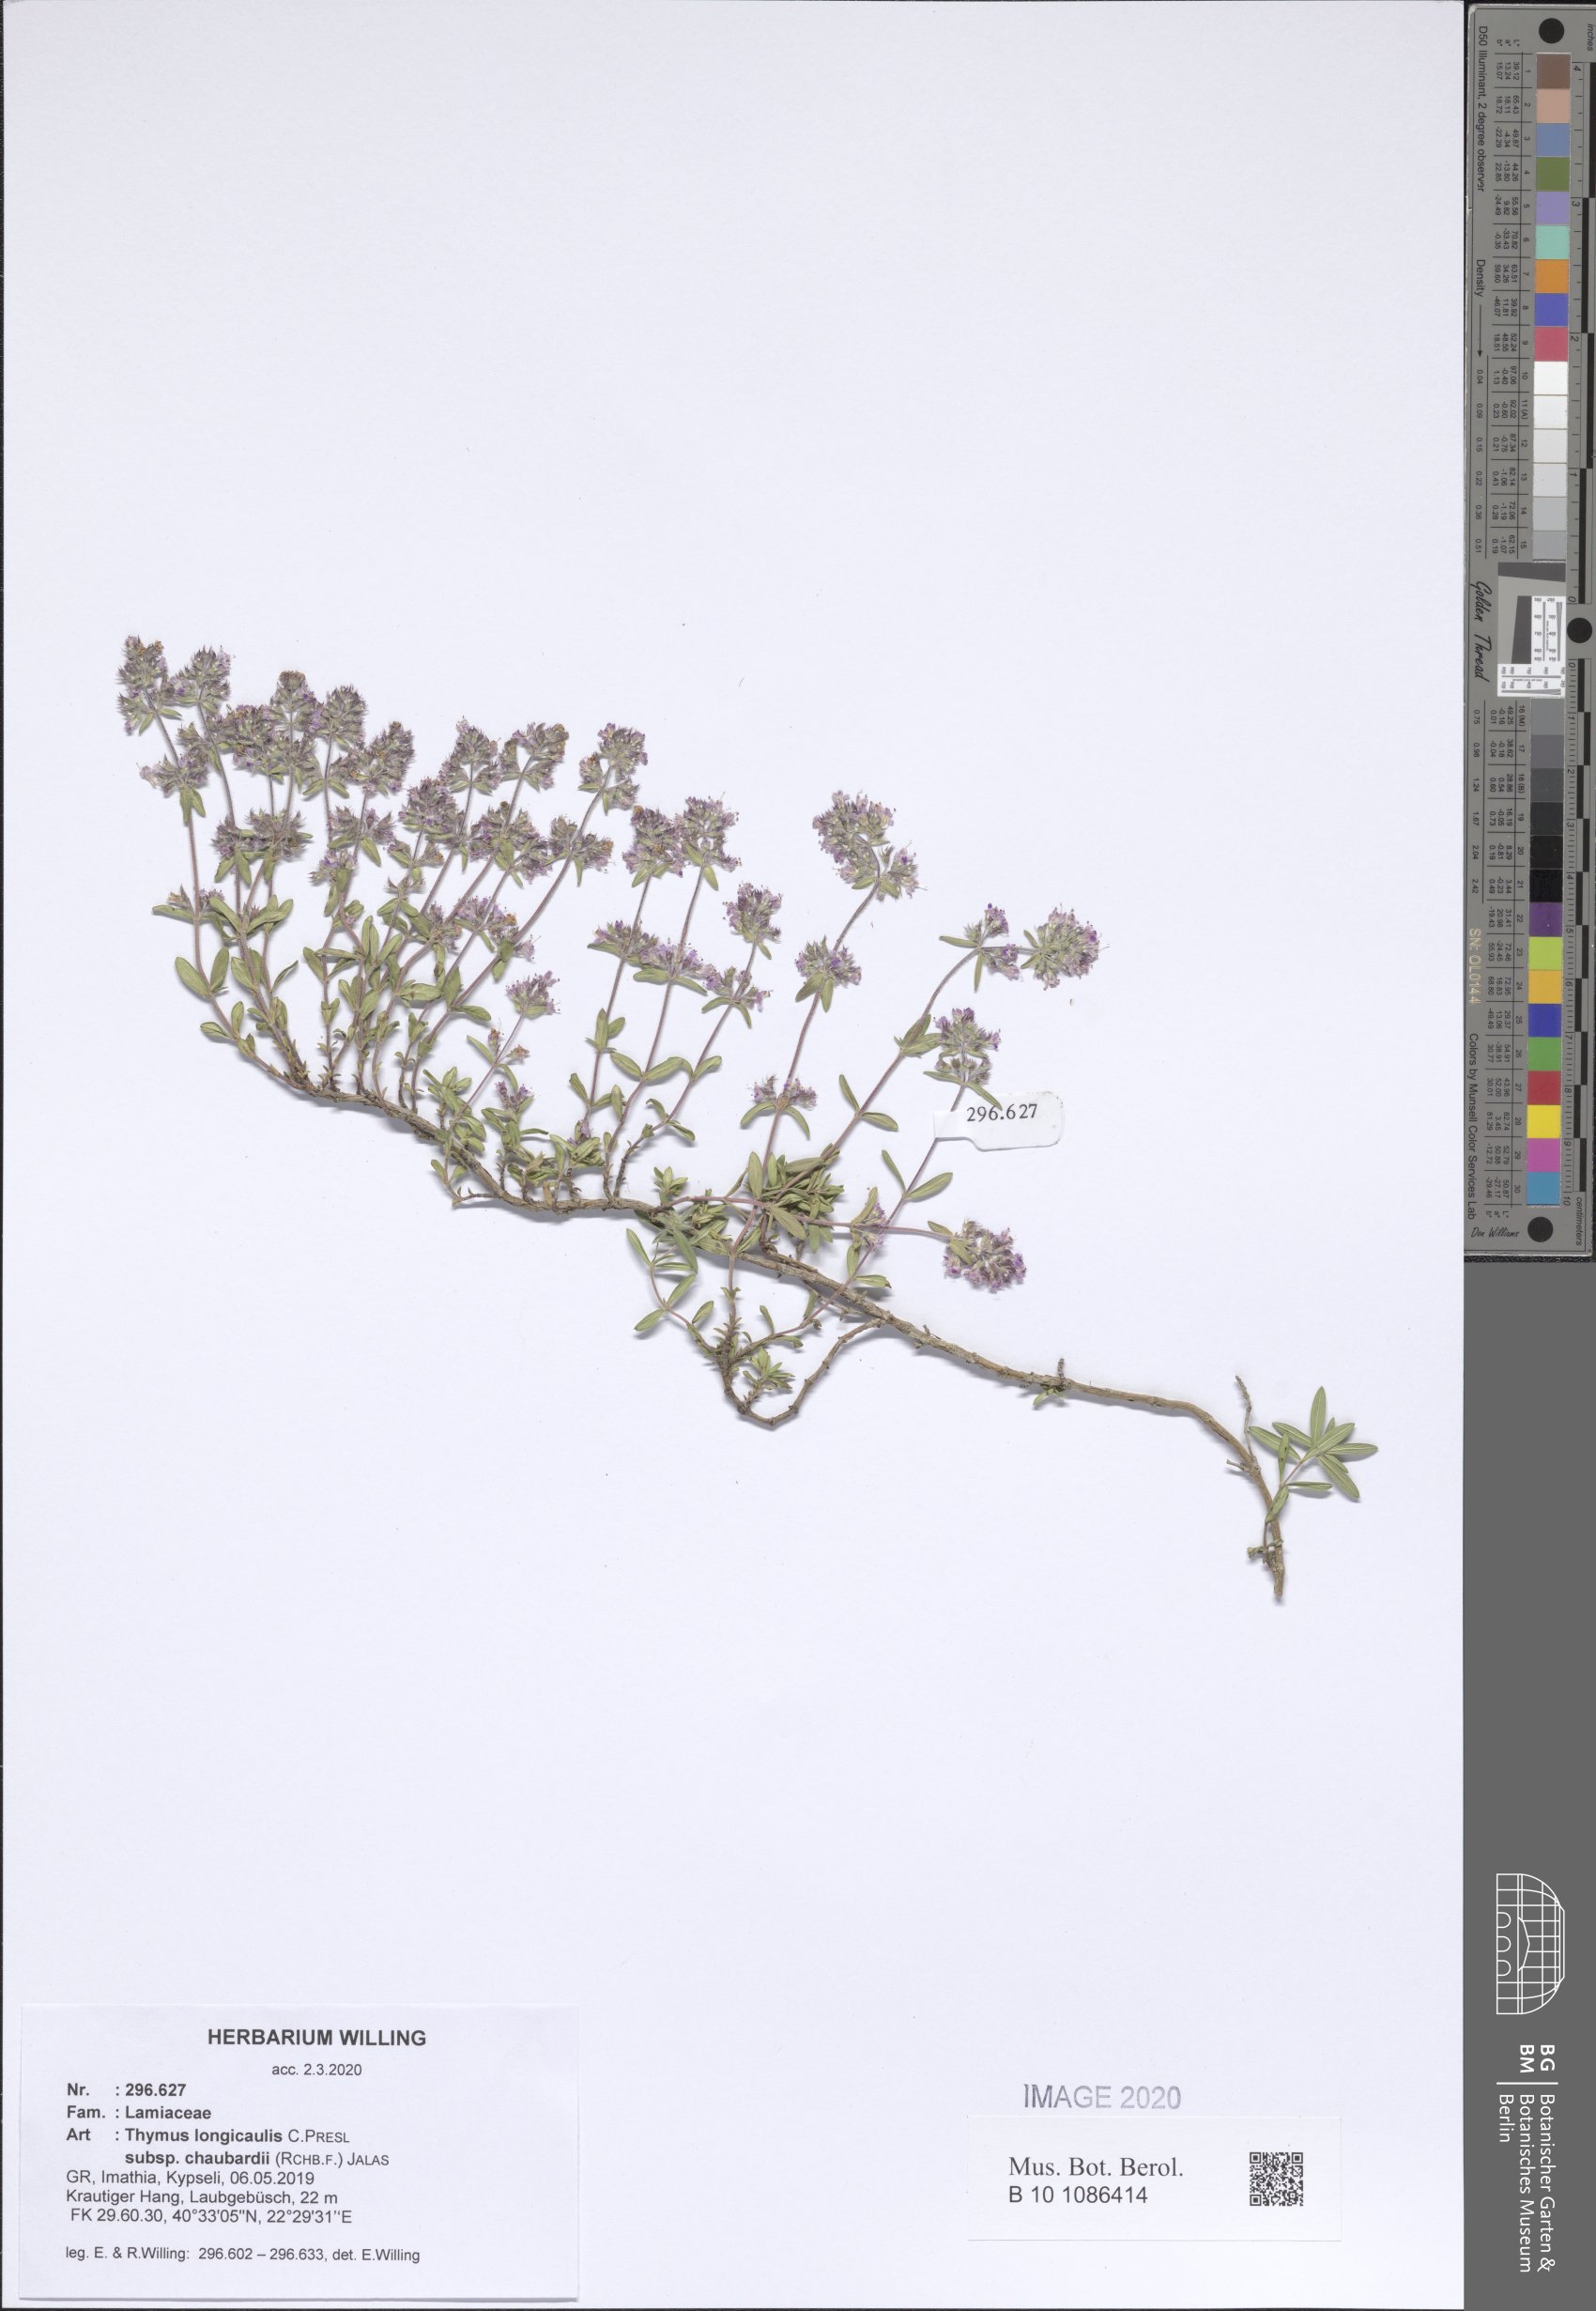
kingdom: Plantae
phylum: Tracheophyta
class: Magnoliopsida
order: Lamiales
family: Lamiaceae
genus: Thymus
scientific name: Thymus longicaulis
